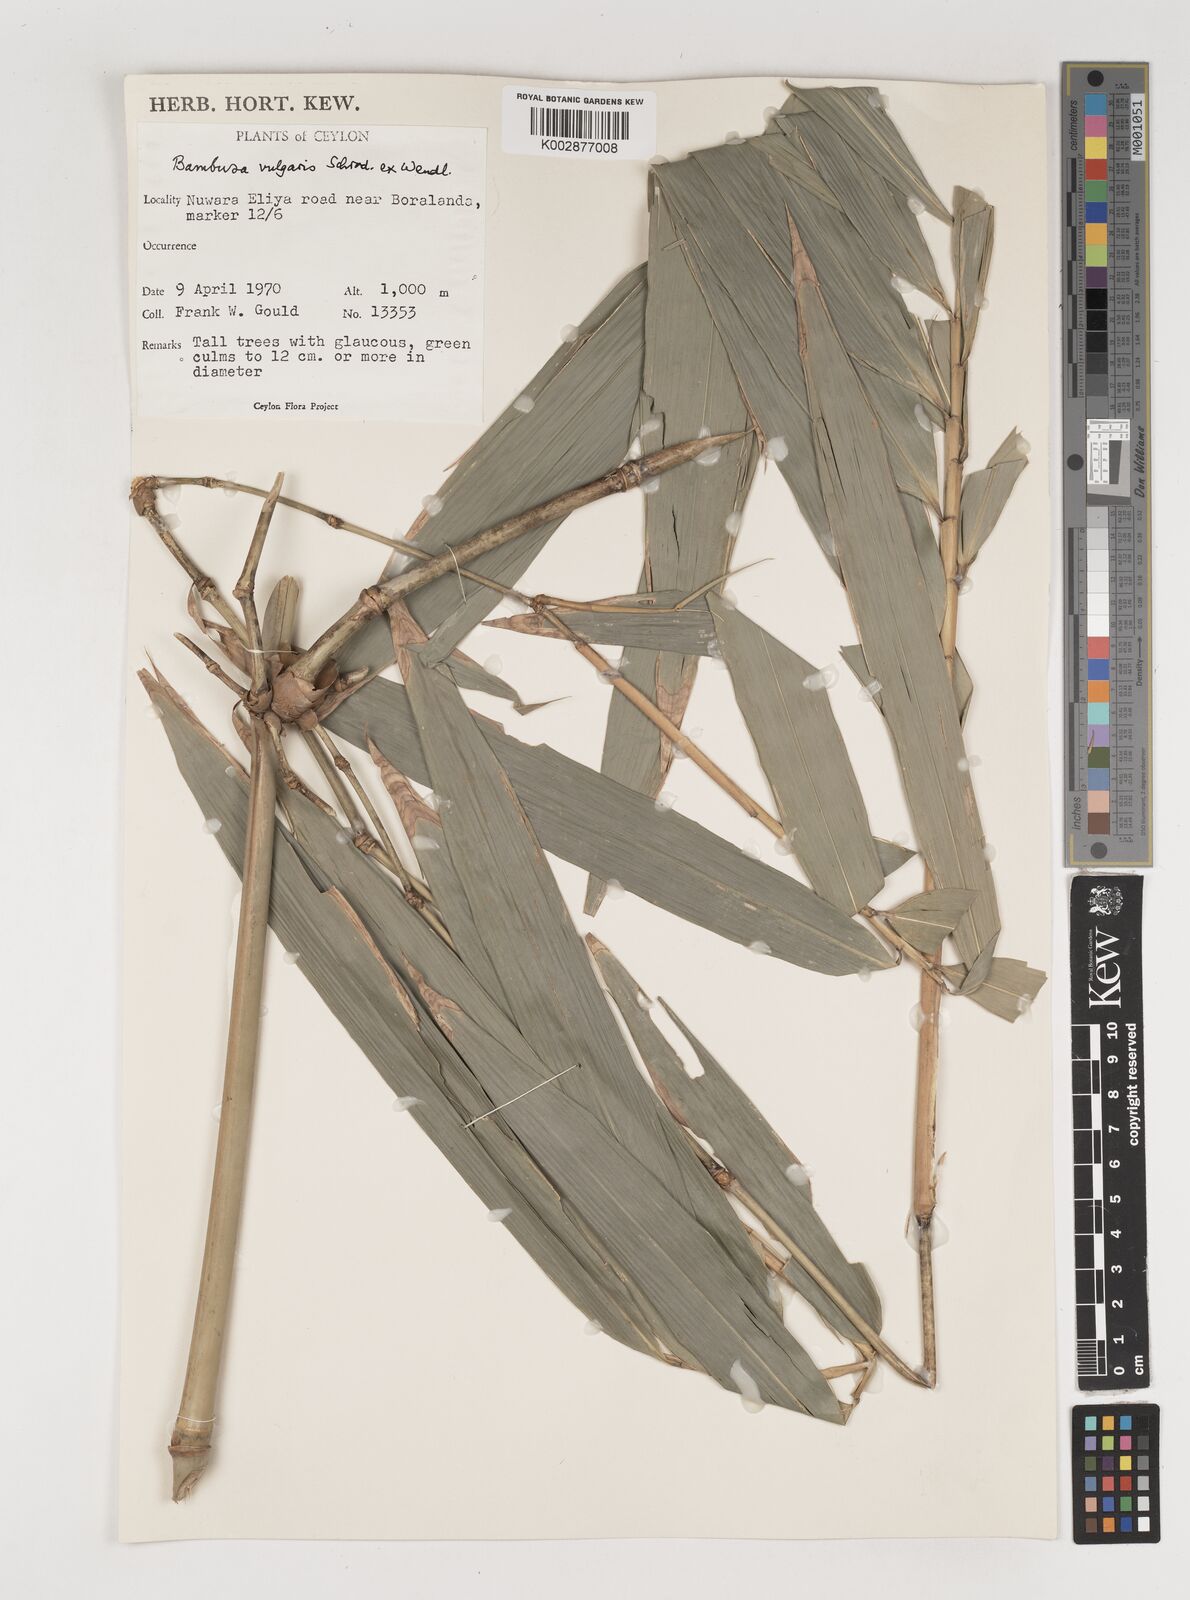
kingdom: Plantae
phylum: Tracheophyta
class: Liliopsida
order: Poales
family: Poaceae
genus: Bambusa
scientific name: Bambusa vulgaris
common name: Common bamboo
